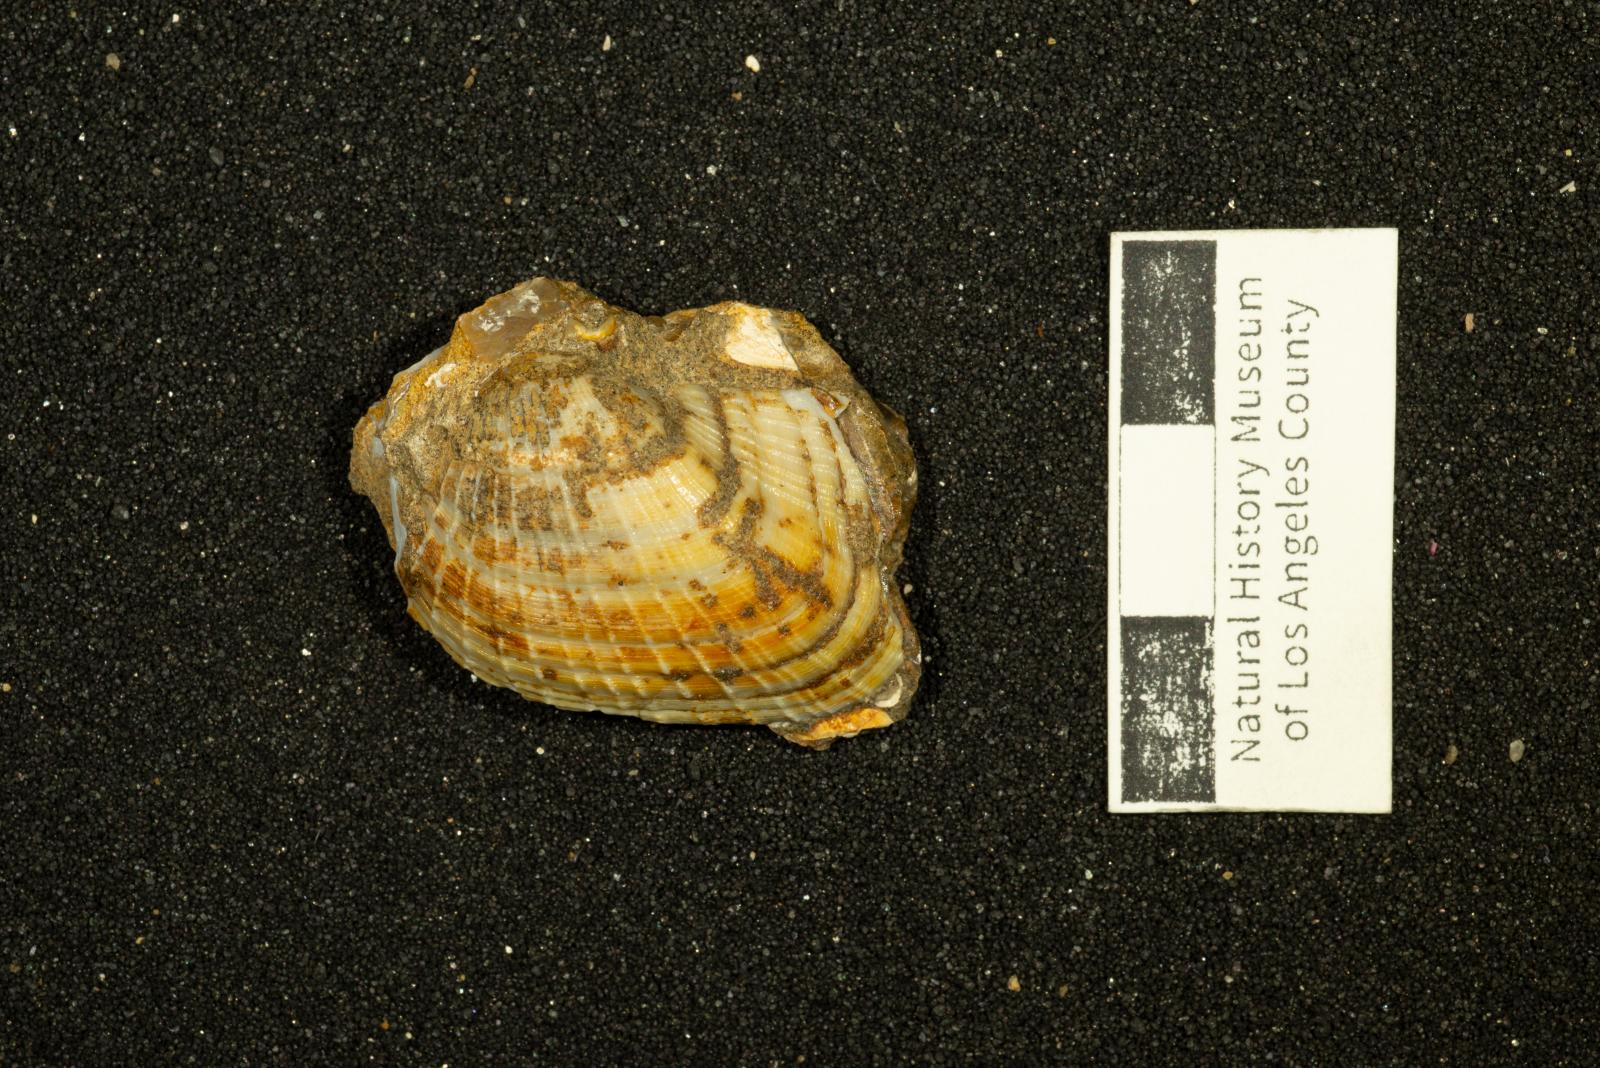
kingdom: Animalia
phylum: Mollusca
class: Bivalvia
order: Arcida
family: Parallelodontidae
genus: Nemodon
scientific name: Nemodon
